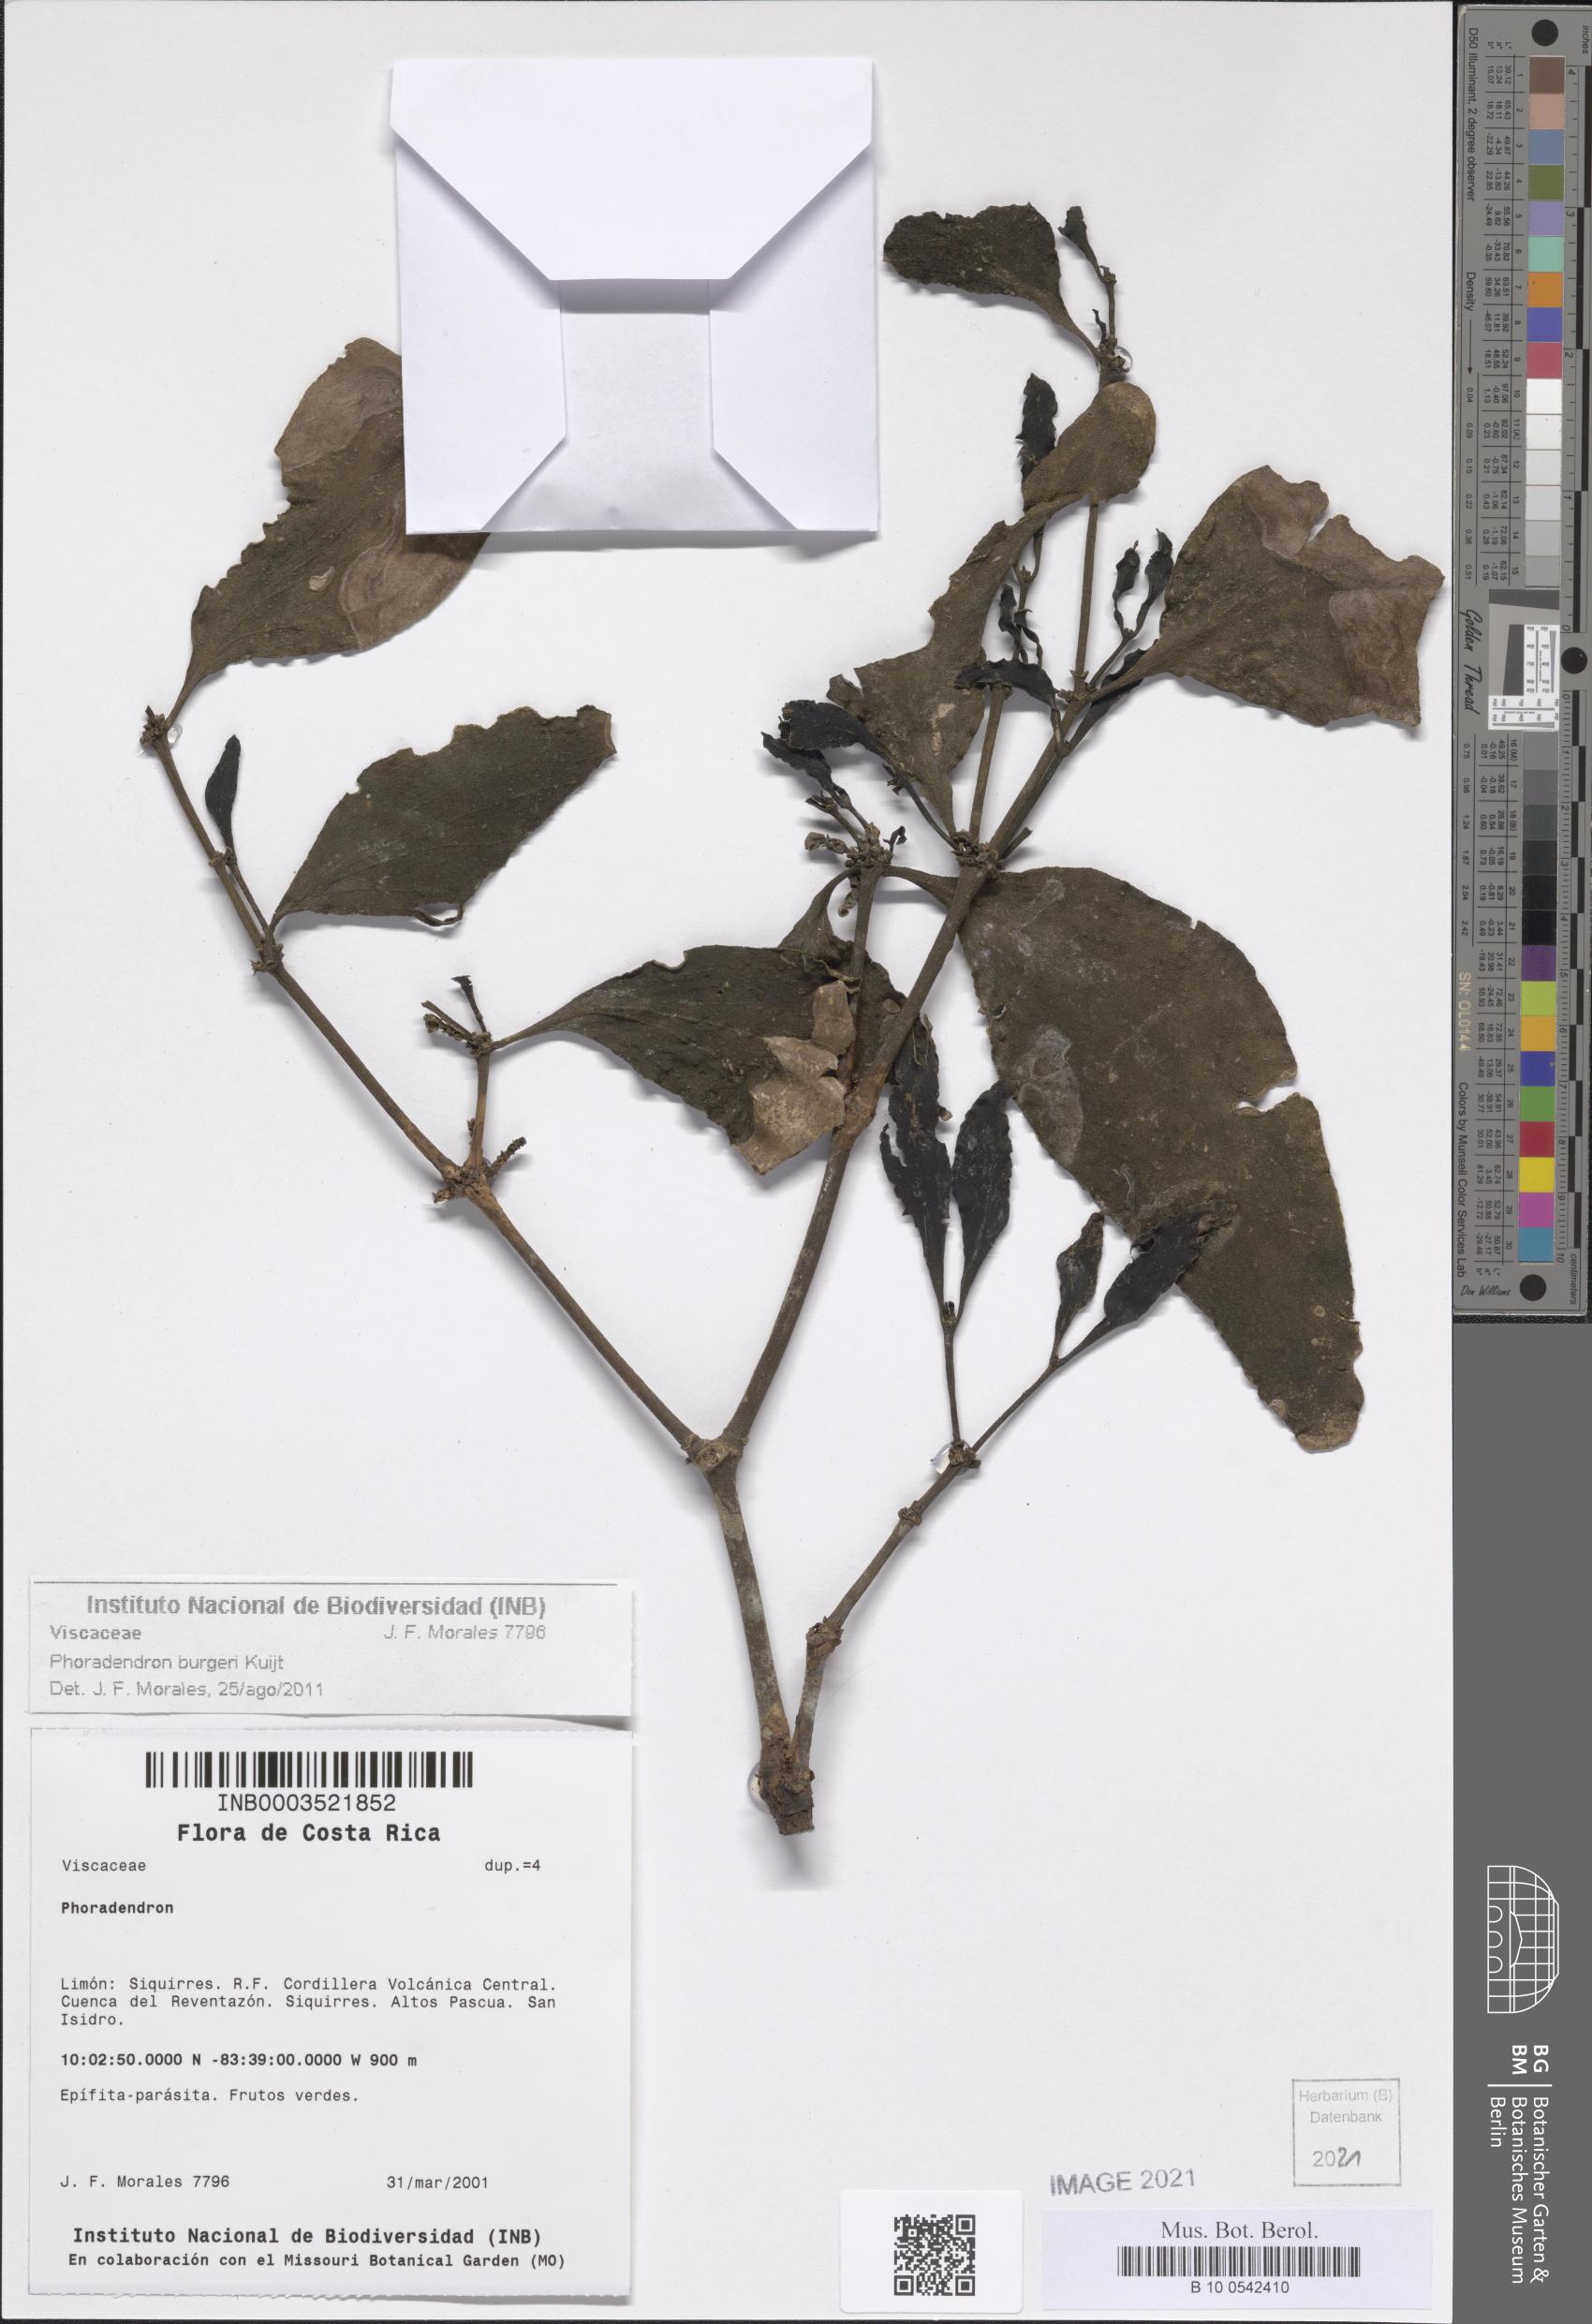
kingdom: Plantae
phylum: Tracheophyta
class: Magnoliopsida
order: Santalales
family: Viscaceae
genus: Phoradendron
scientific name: Phoradendron burgeri
